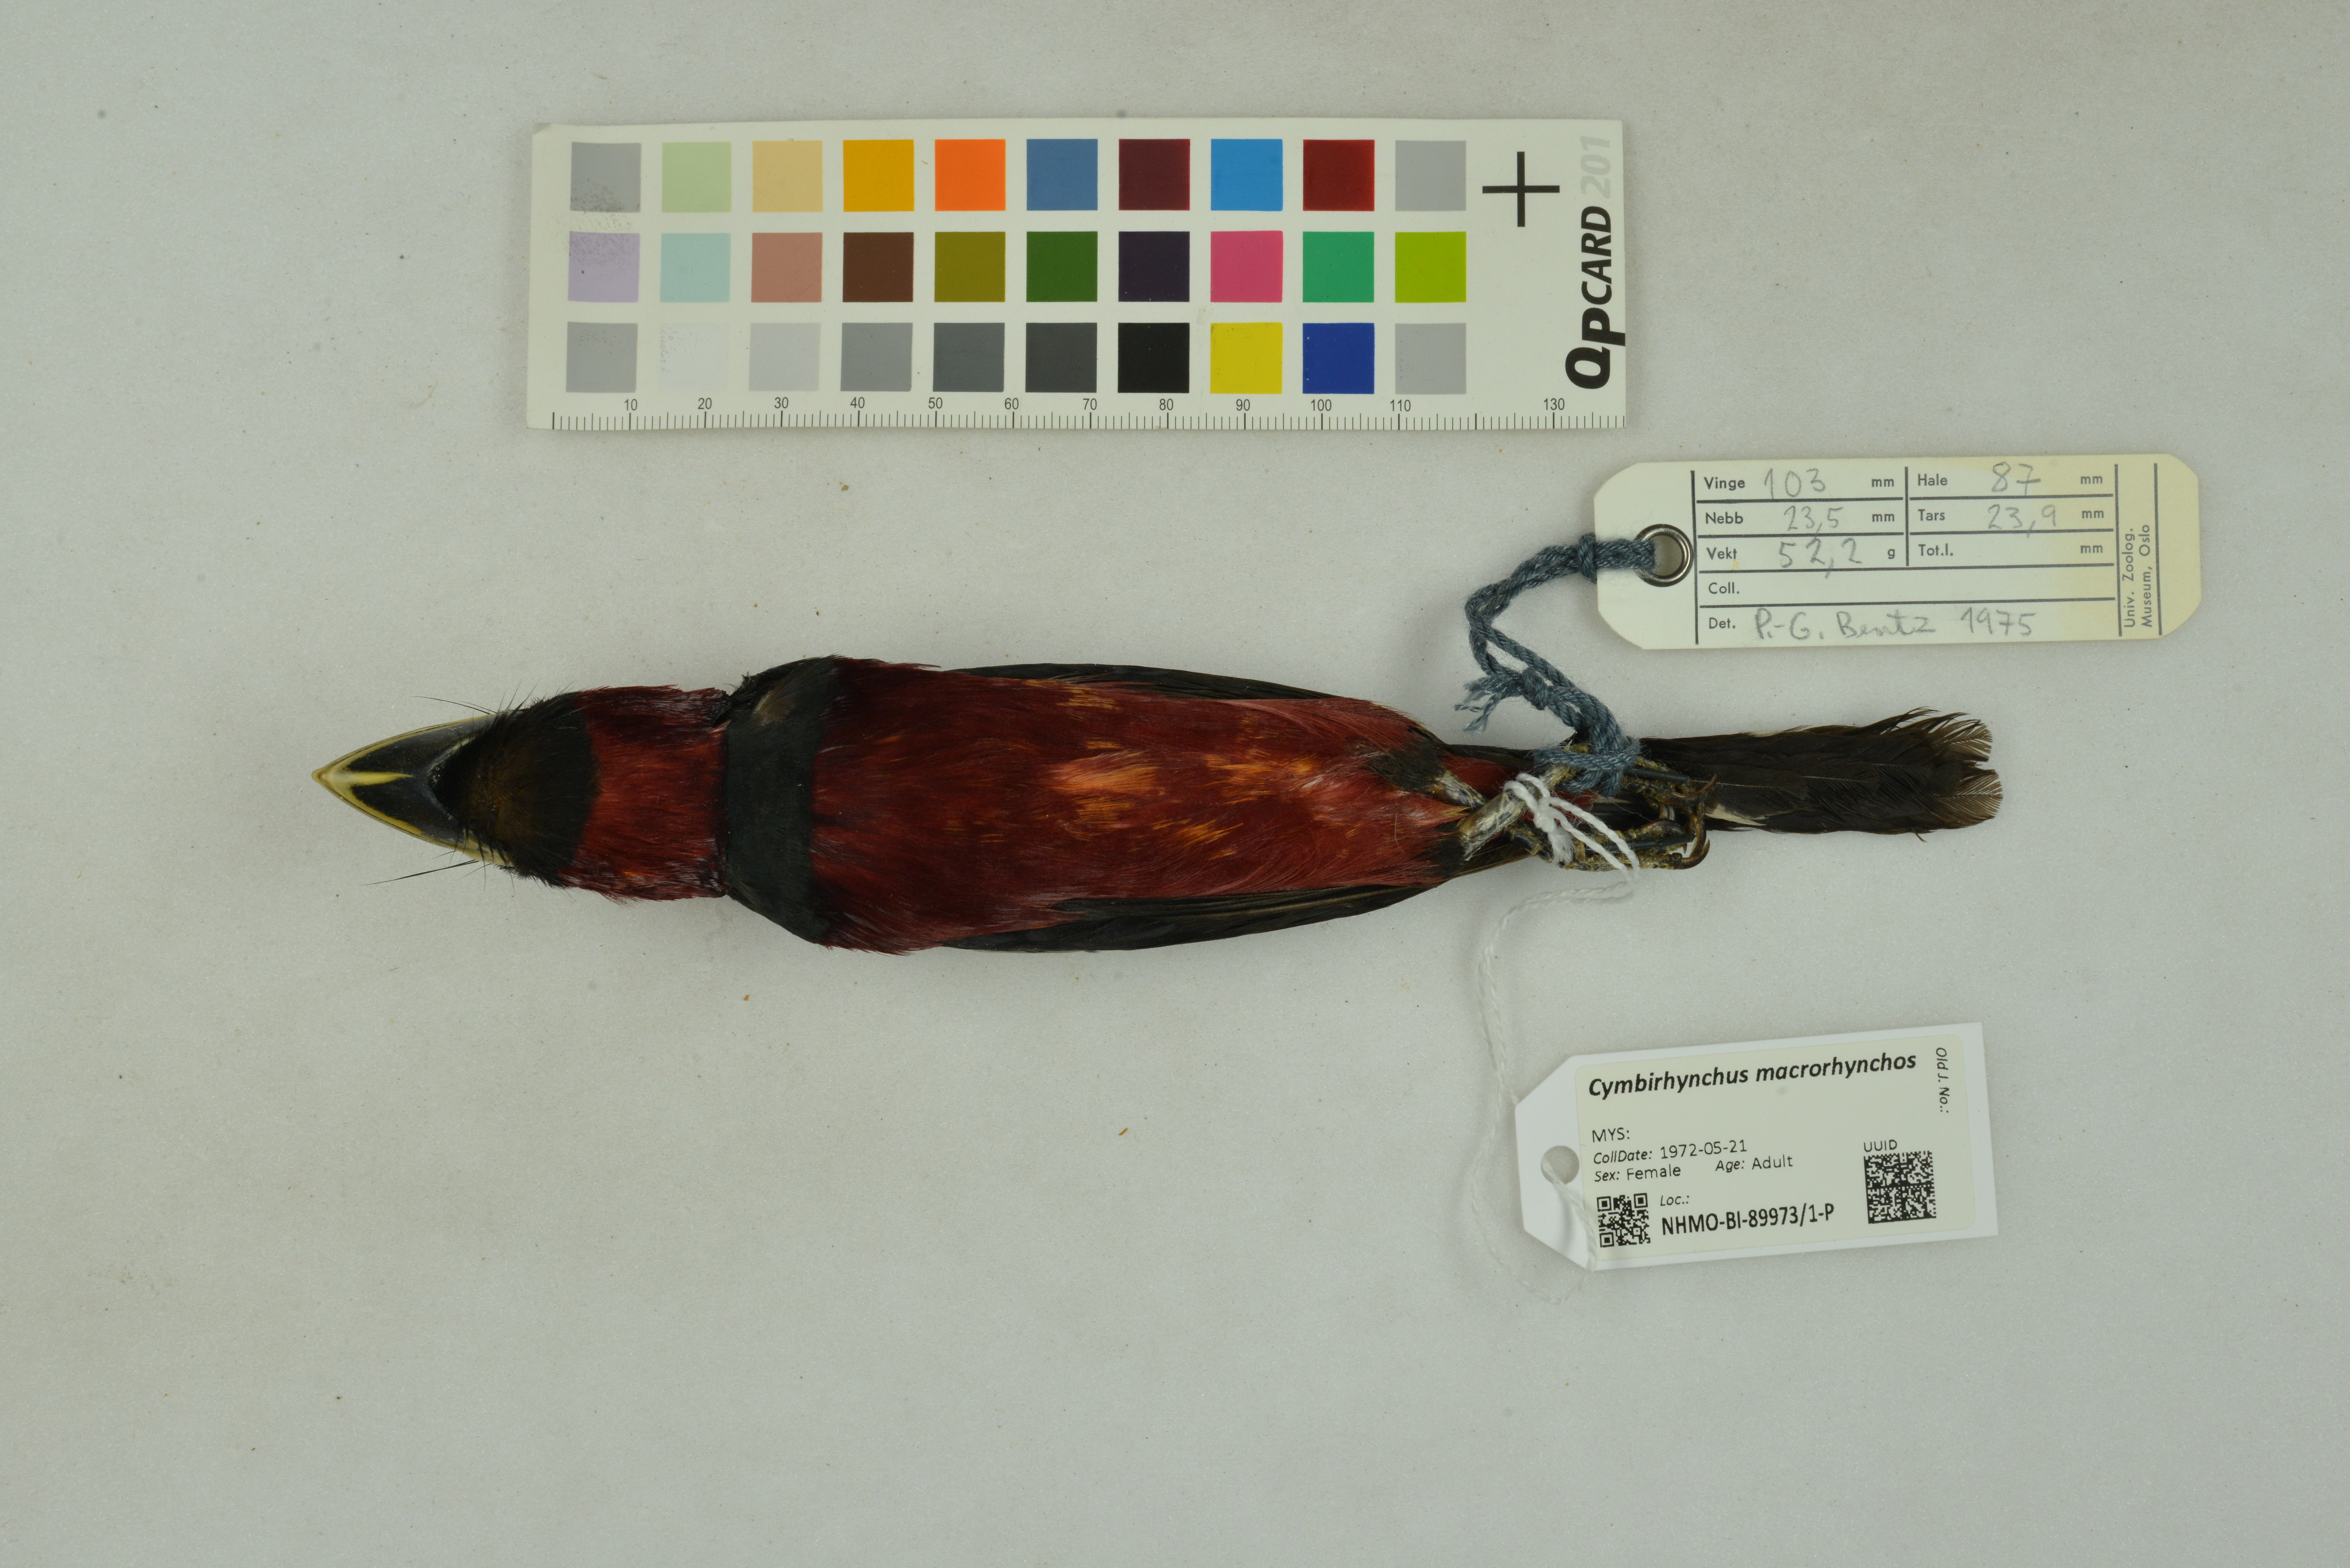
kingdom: Animalia
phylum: Chordata
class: Aves
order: Passeriformes
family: Eurylaimidae
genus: Cymbirhynchus
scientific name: Cymbirhynchus macrorhynchos
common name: Black-and-red broadbill
